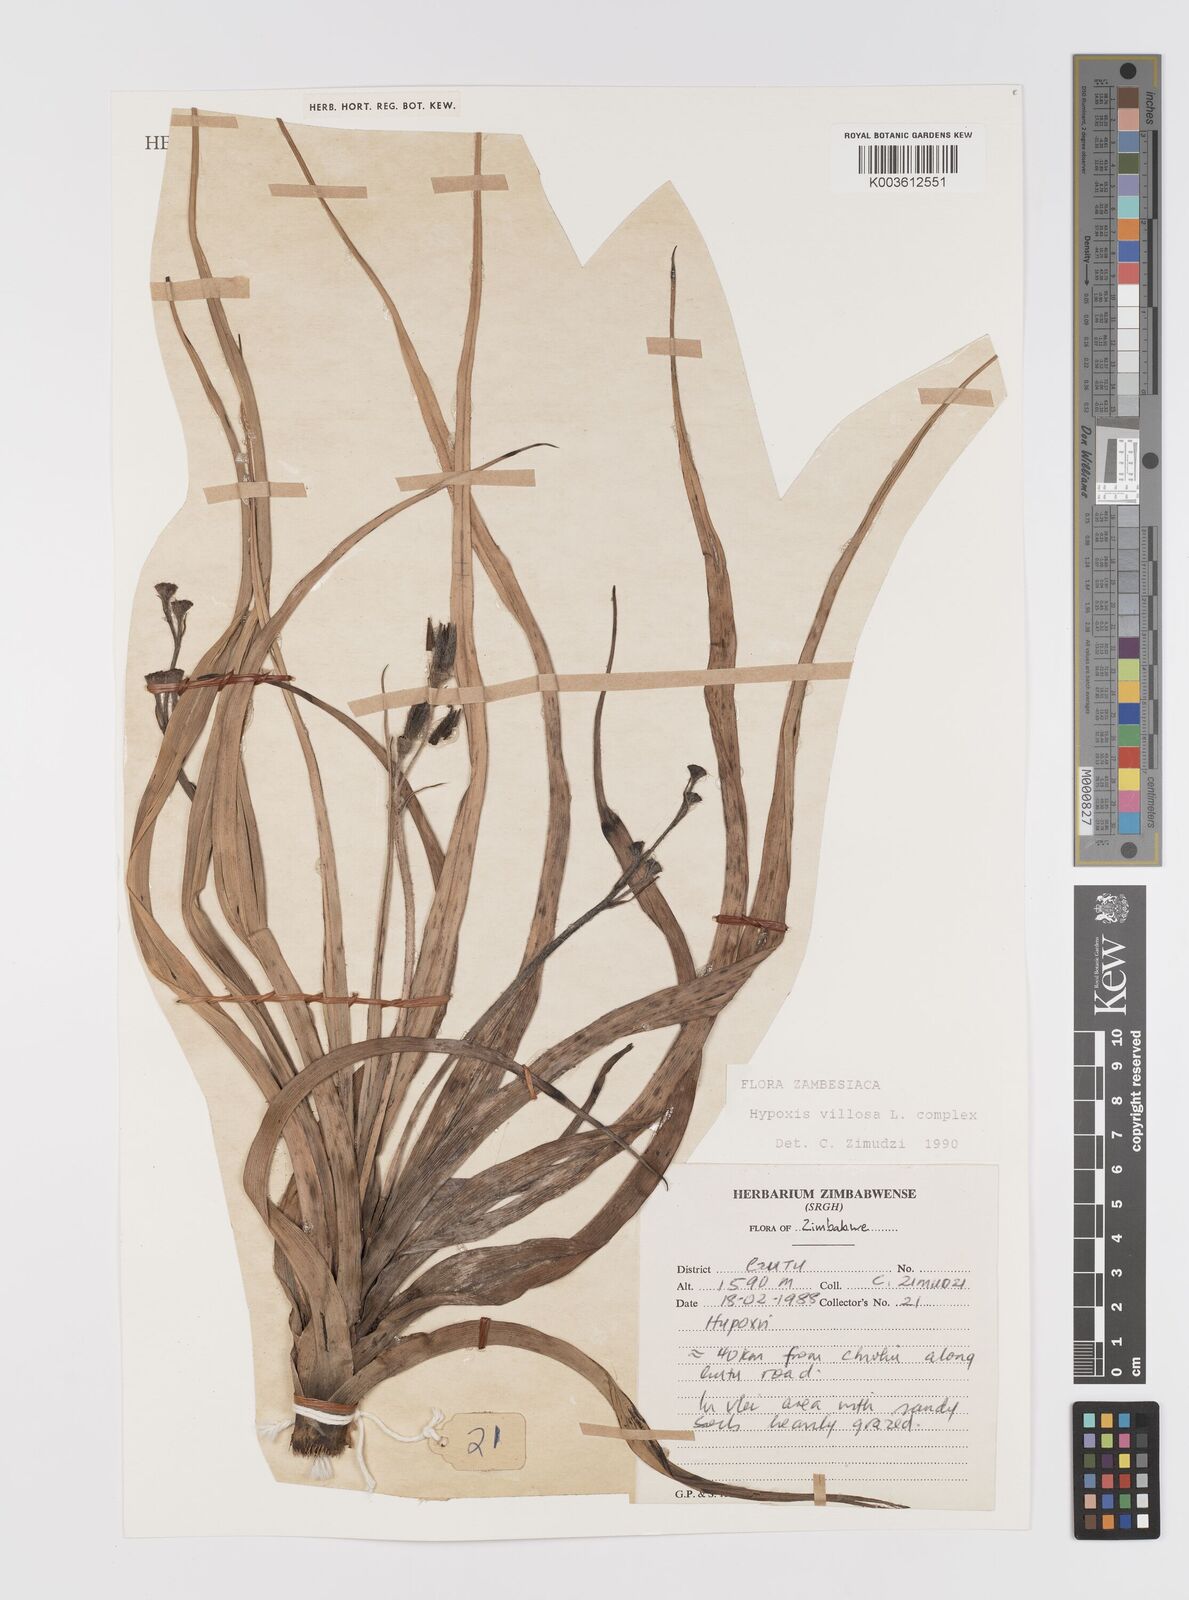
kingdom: Plantae
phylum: Tracheophyta
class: Liliopsida
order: Asparagales
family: Hypoxidaceae
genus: Hypoxis
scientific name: Hypoxis villosa
